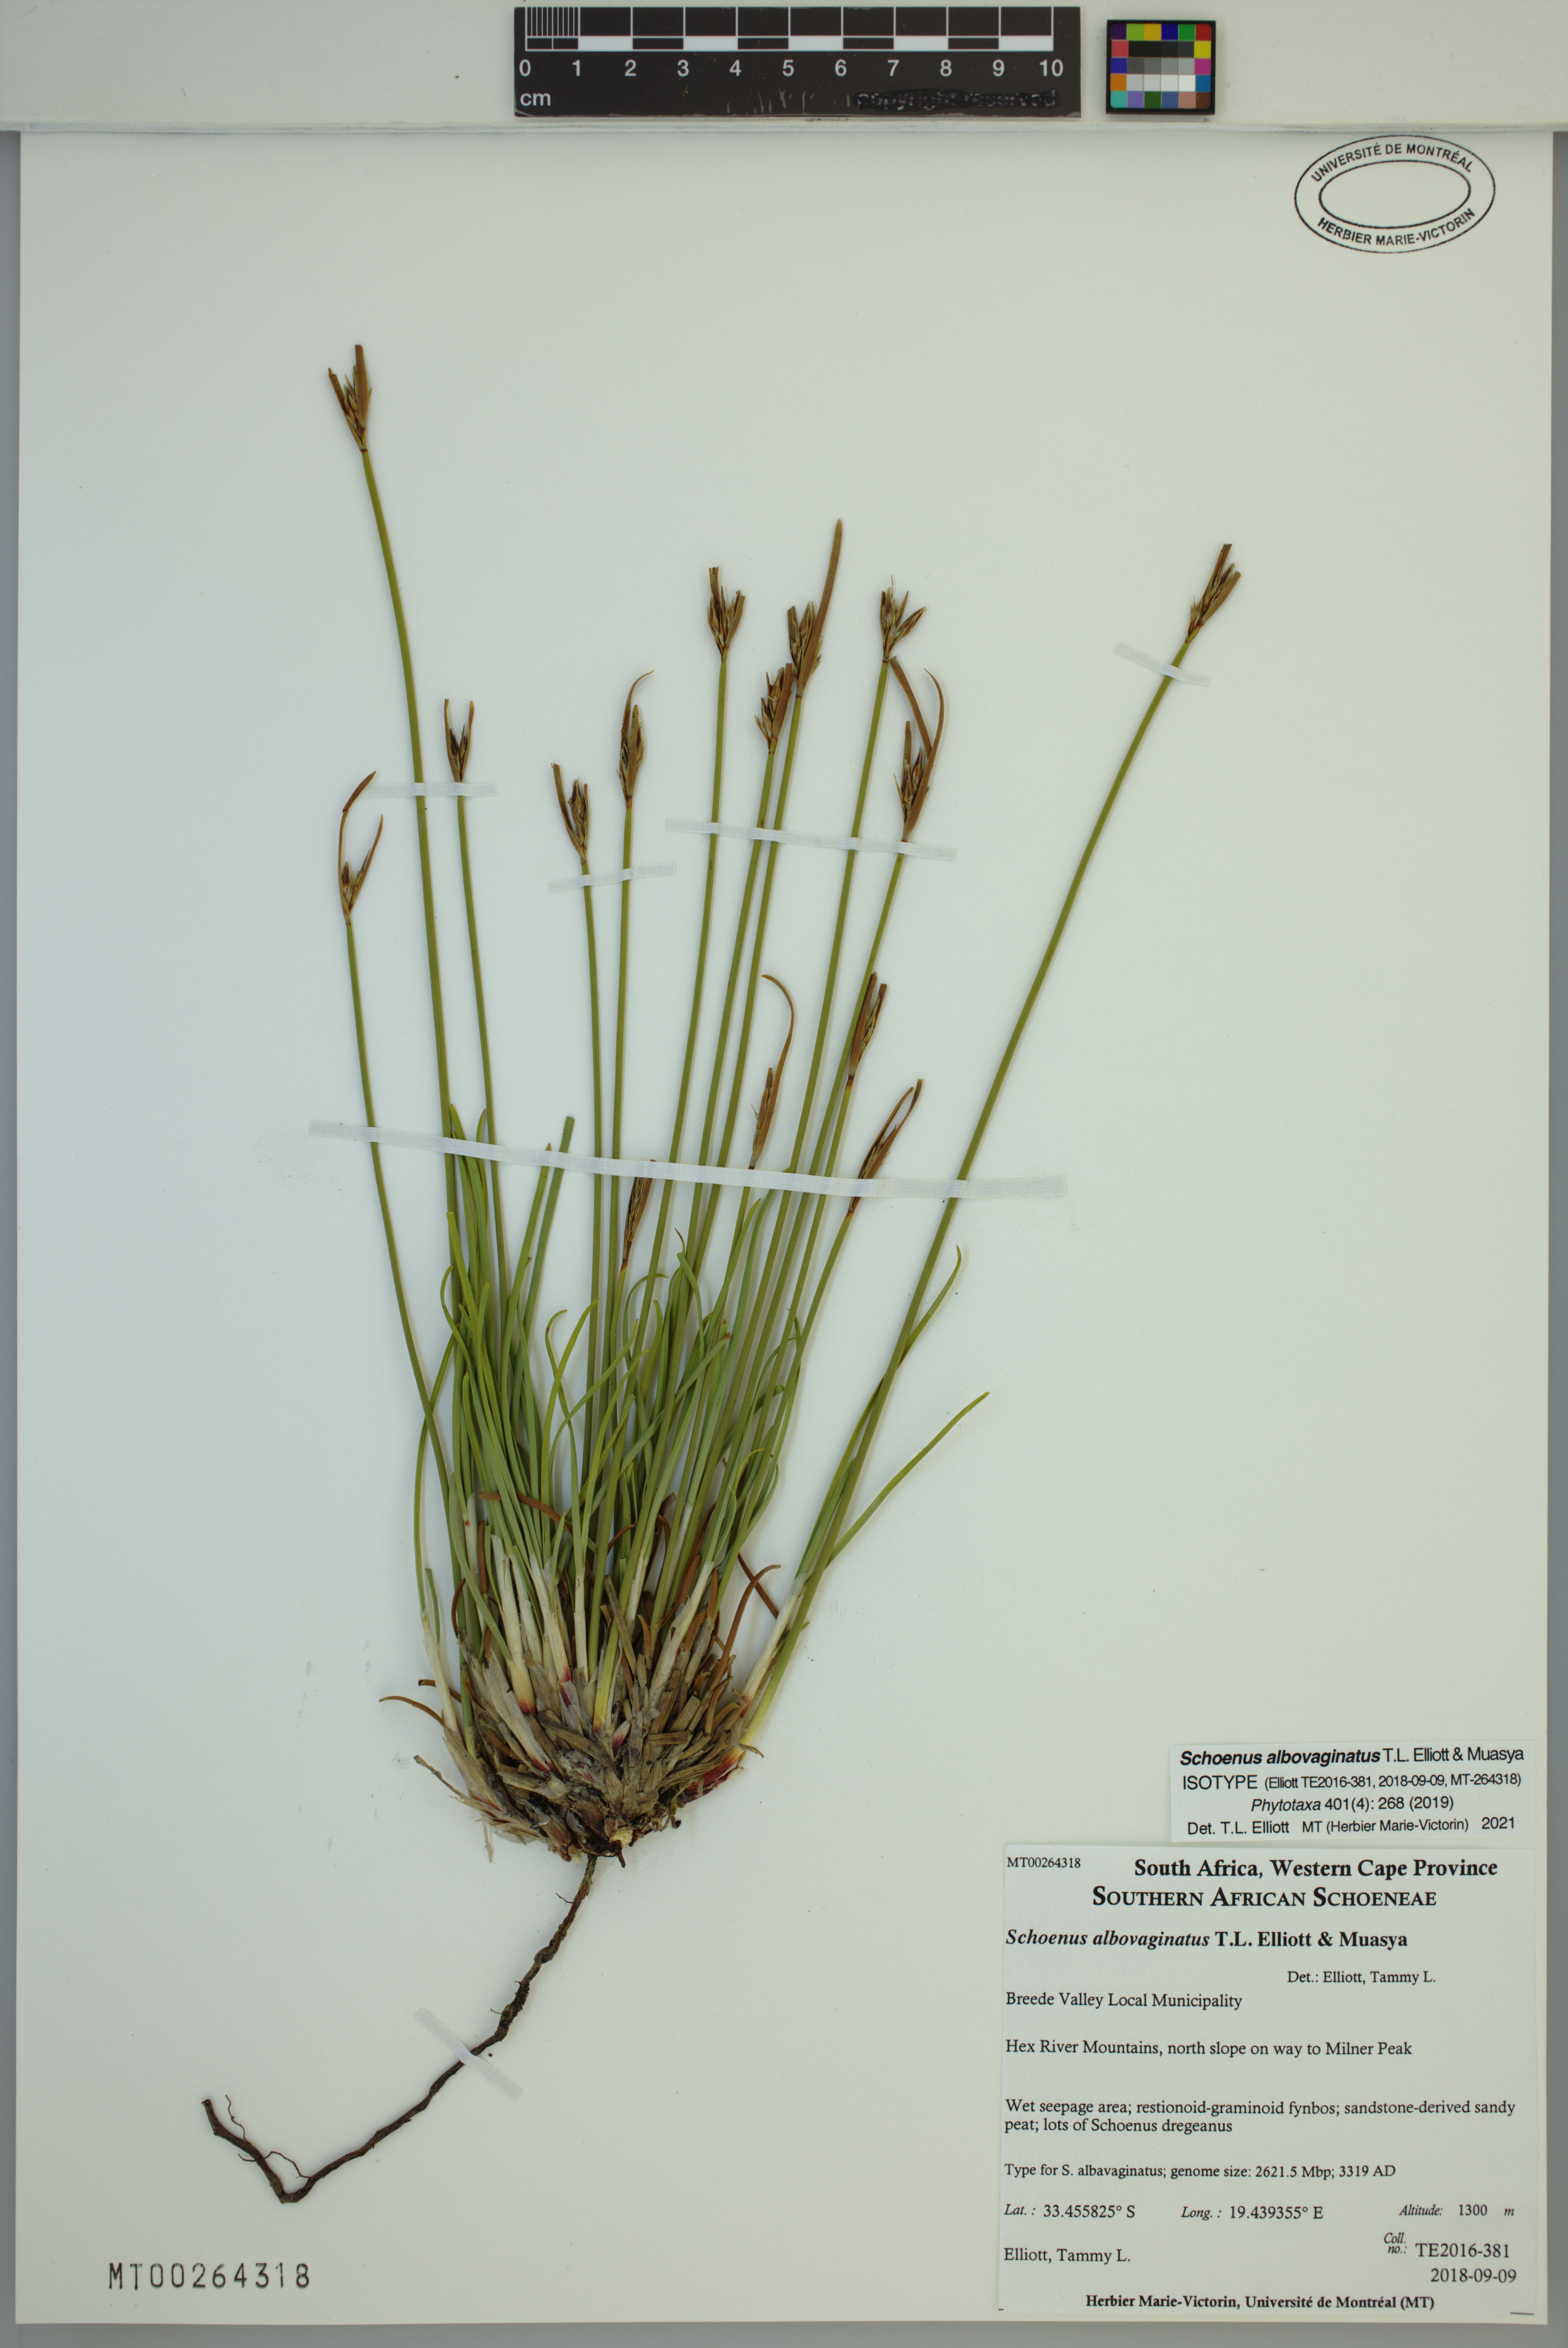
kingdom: Plantae
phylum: Tracheophyta
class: Liliopsida
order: Poales
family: Cyperaceae
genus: Schoenus
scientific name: Schoenus albovaginatus
